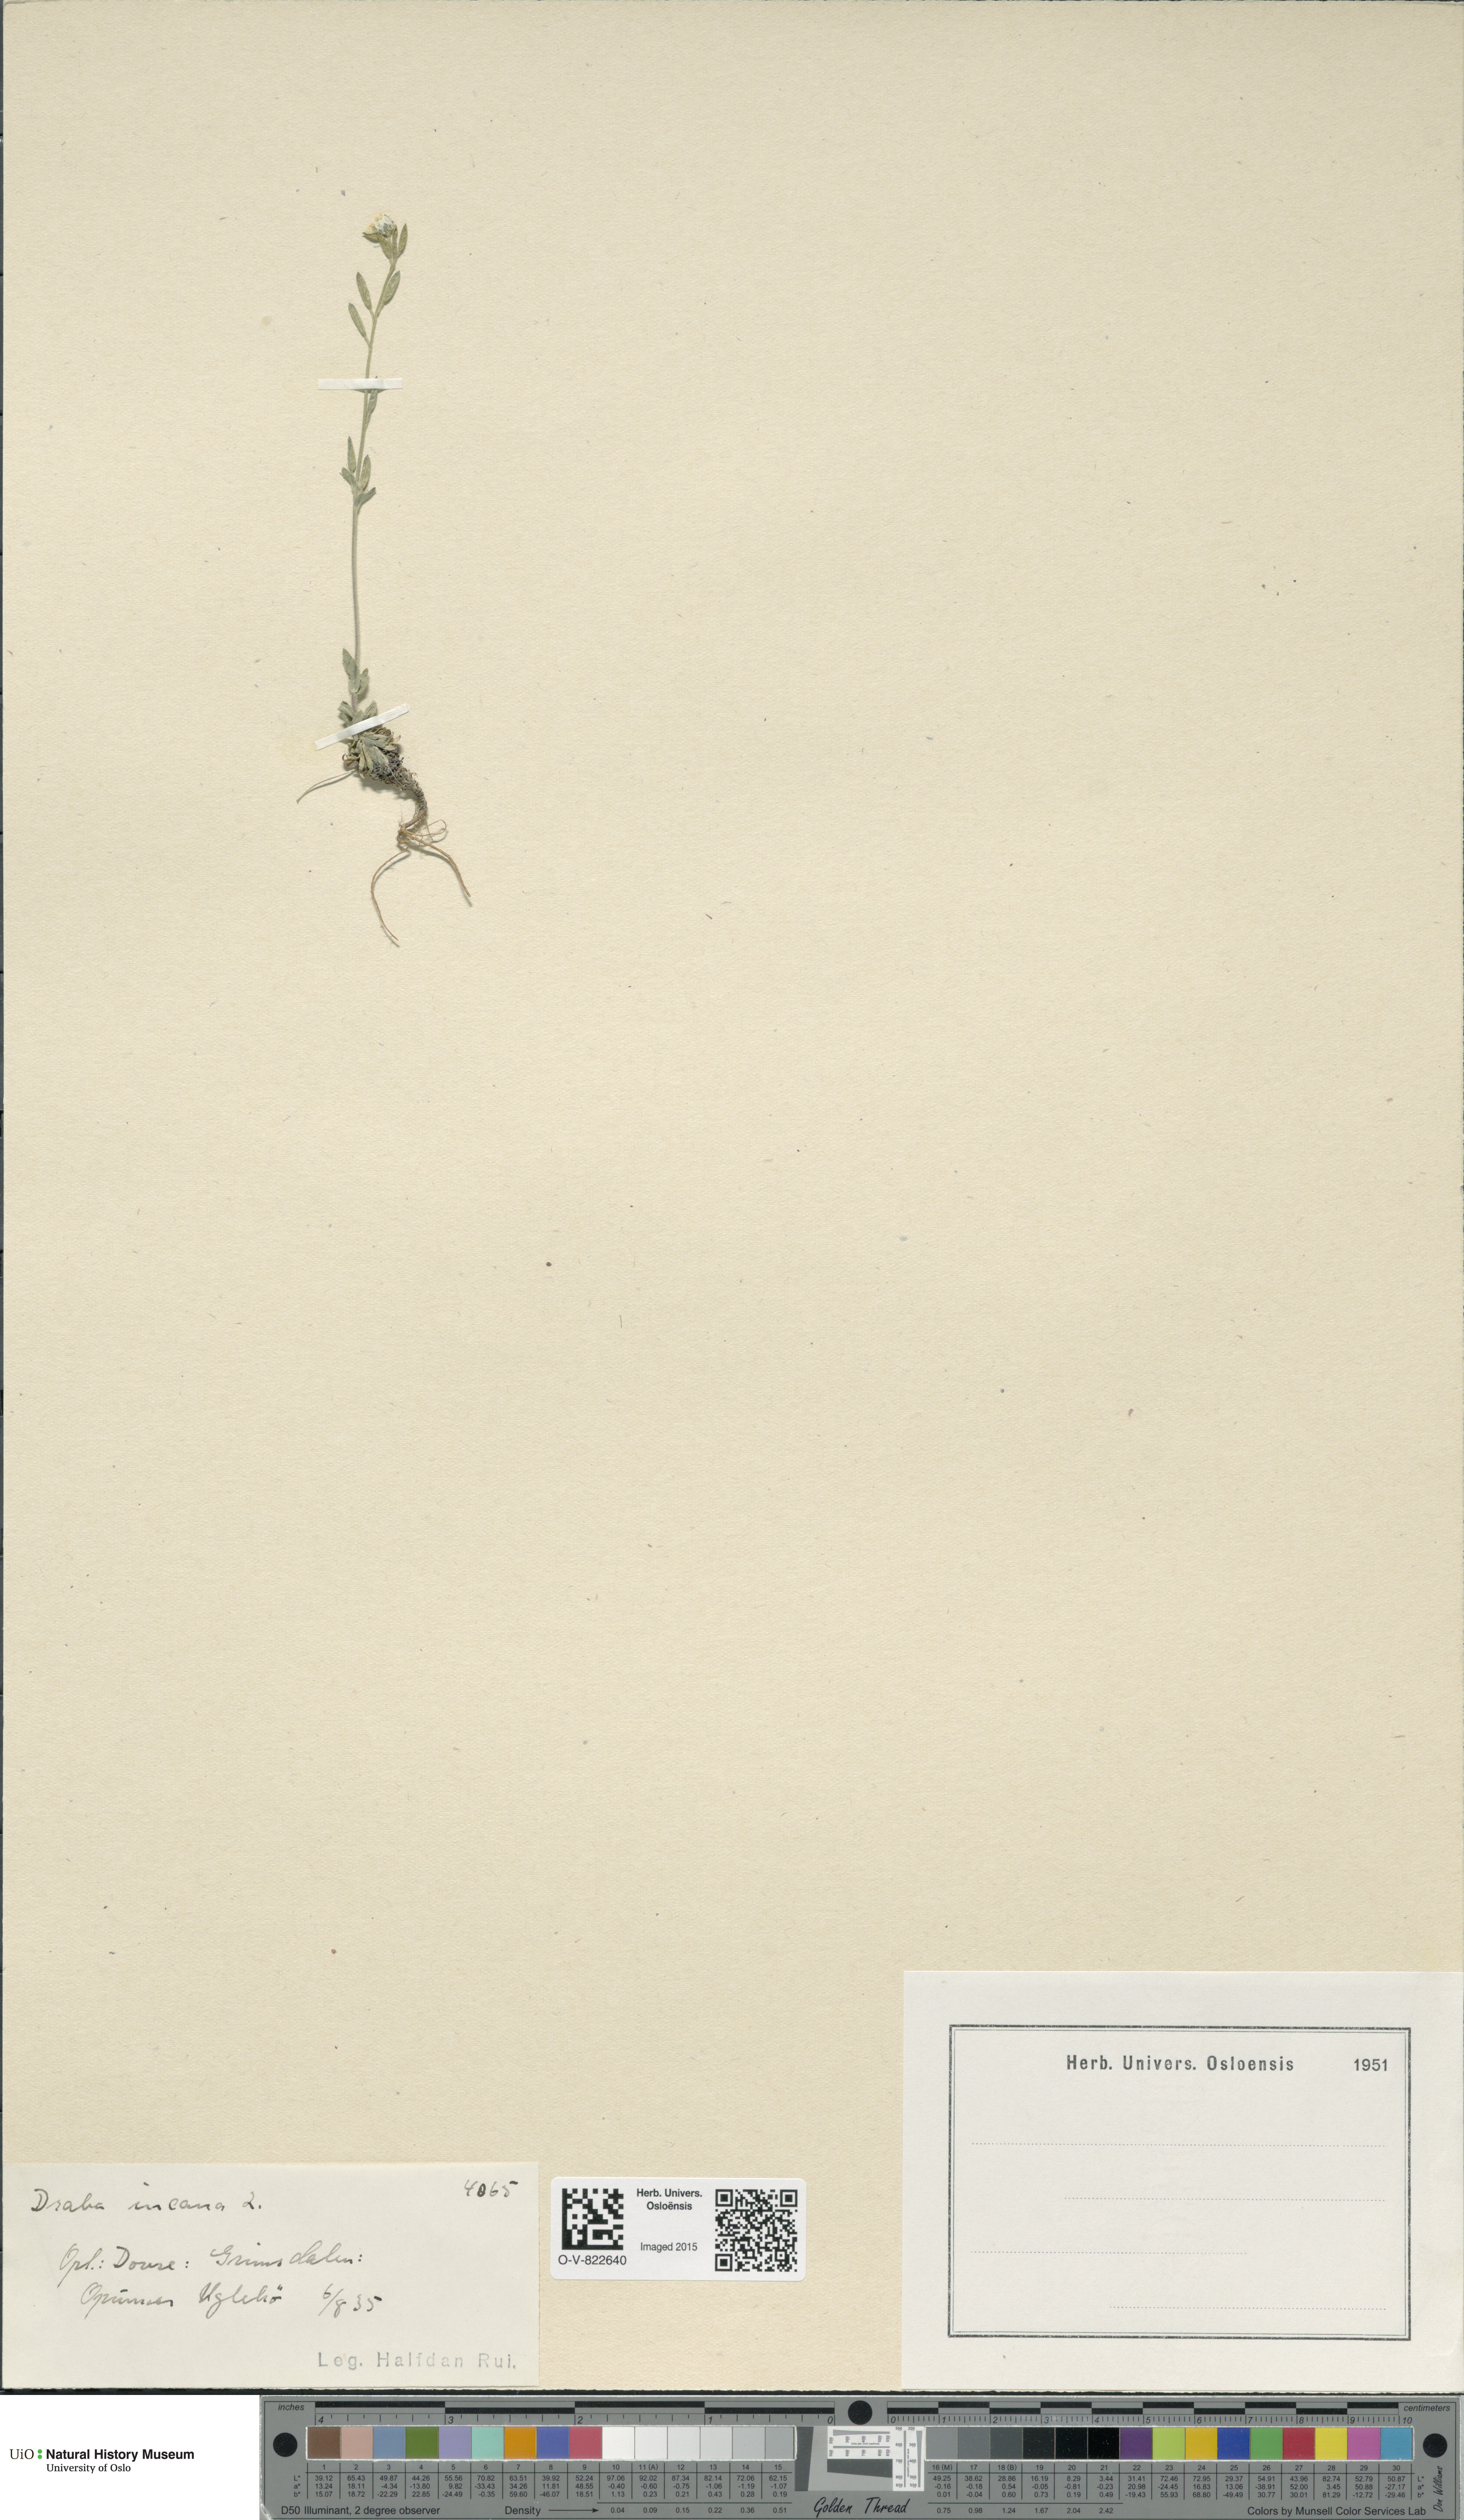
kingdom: Plantae
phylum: Tracheophyta
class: Magnoliopsida
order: Brassicales
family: Brassicaceae
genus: Draba
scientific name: Draba incana
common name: Hoary whitlow-grass
